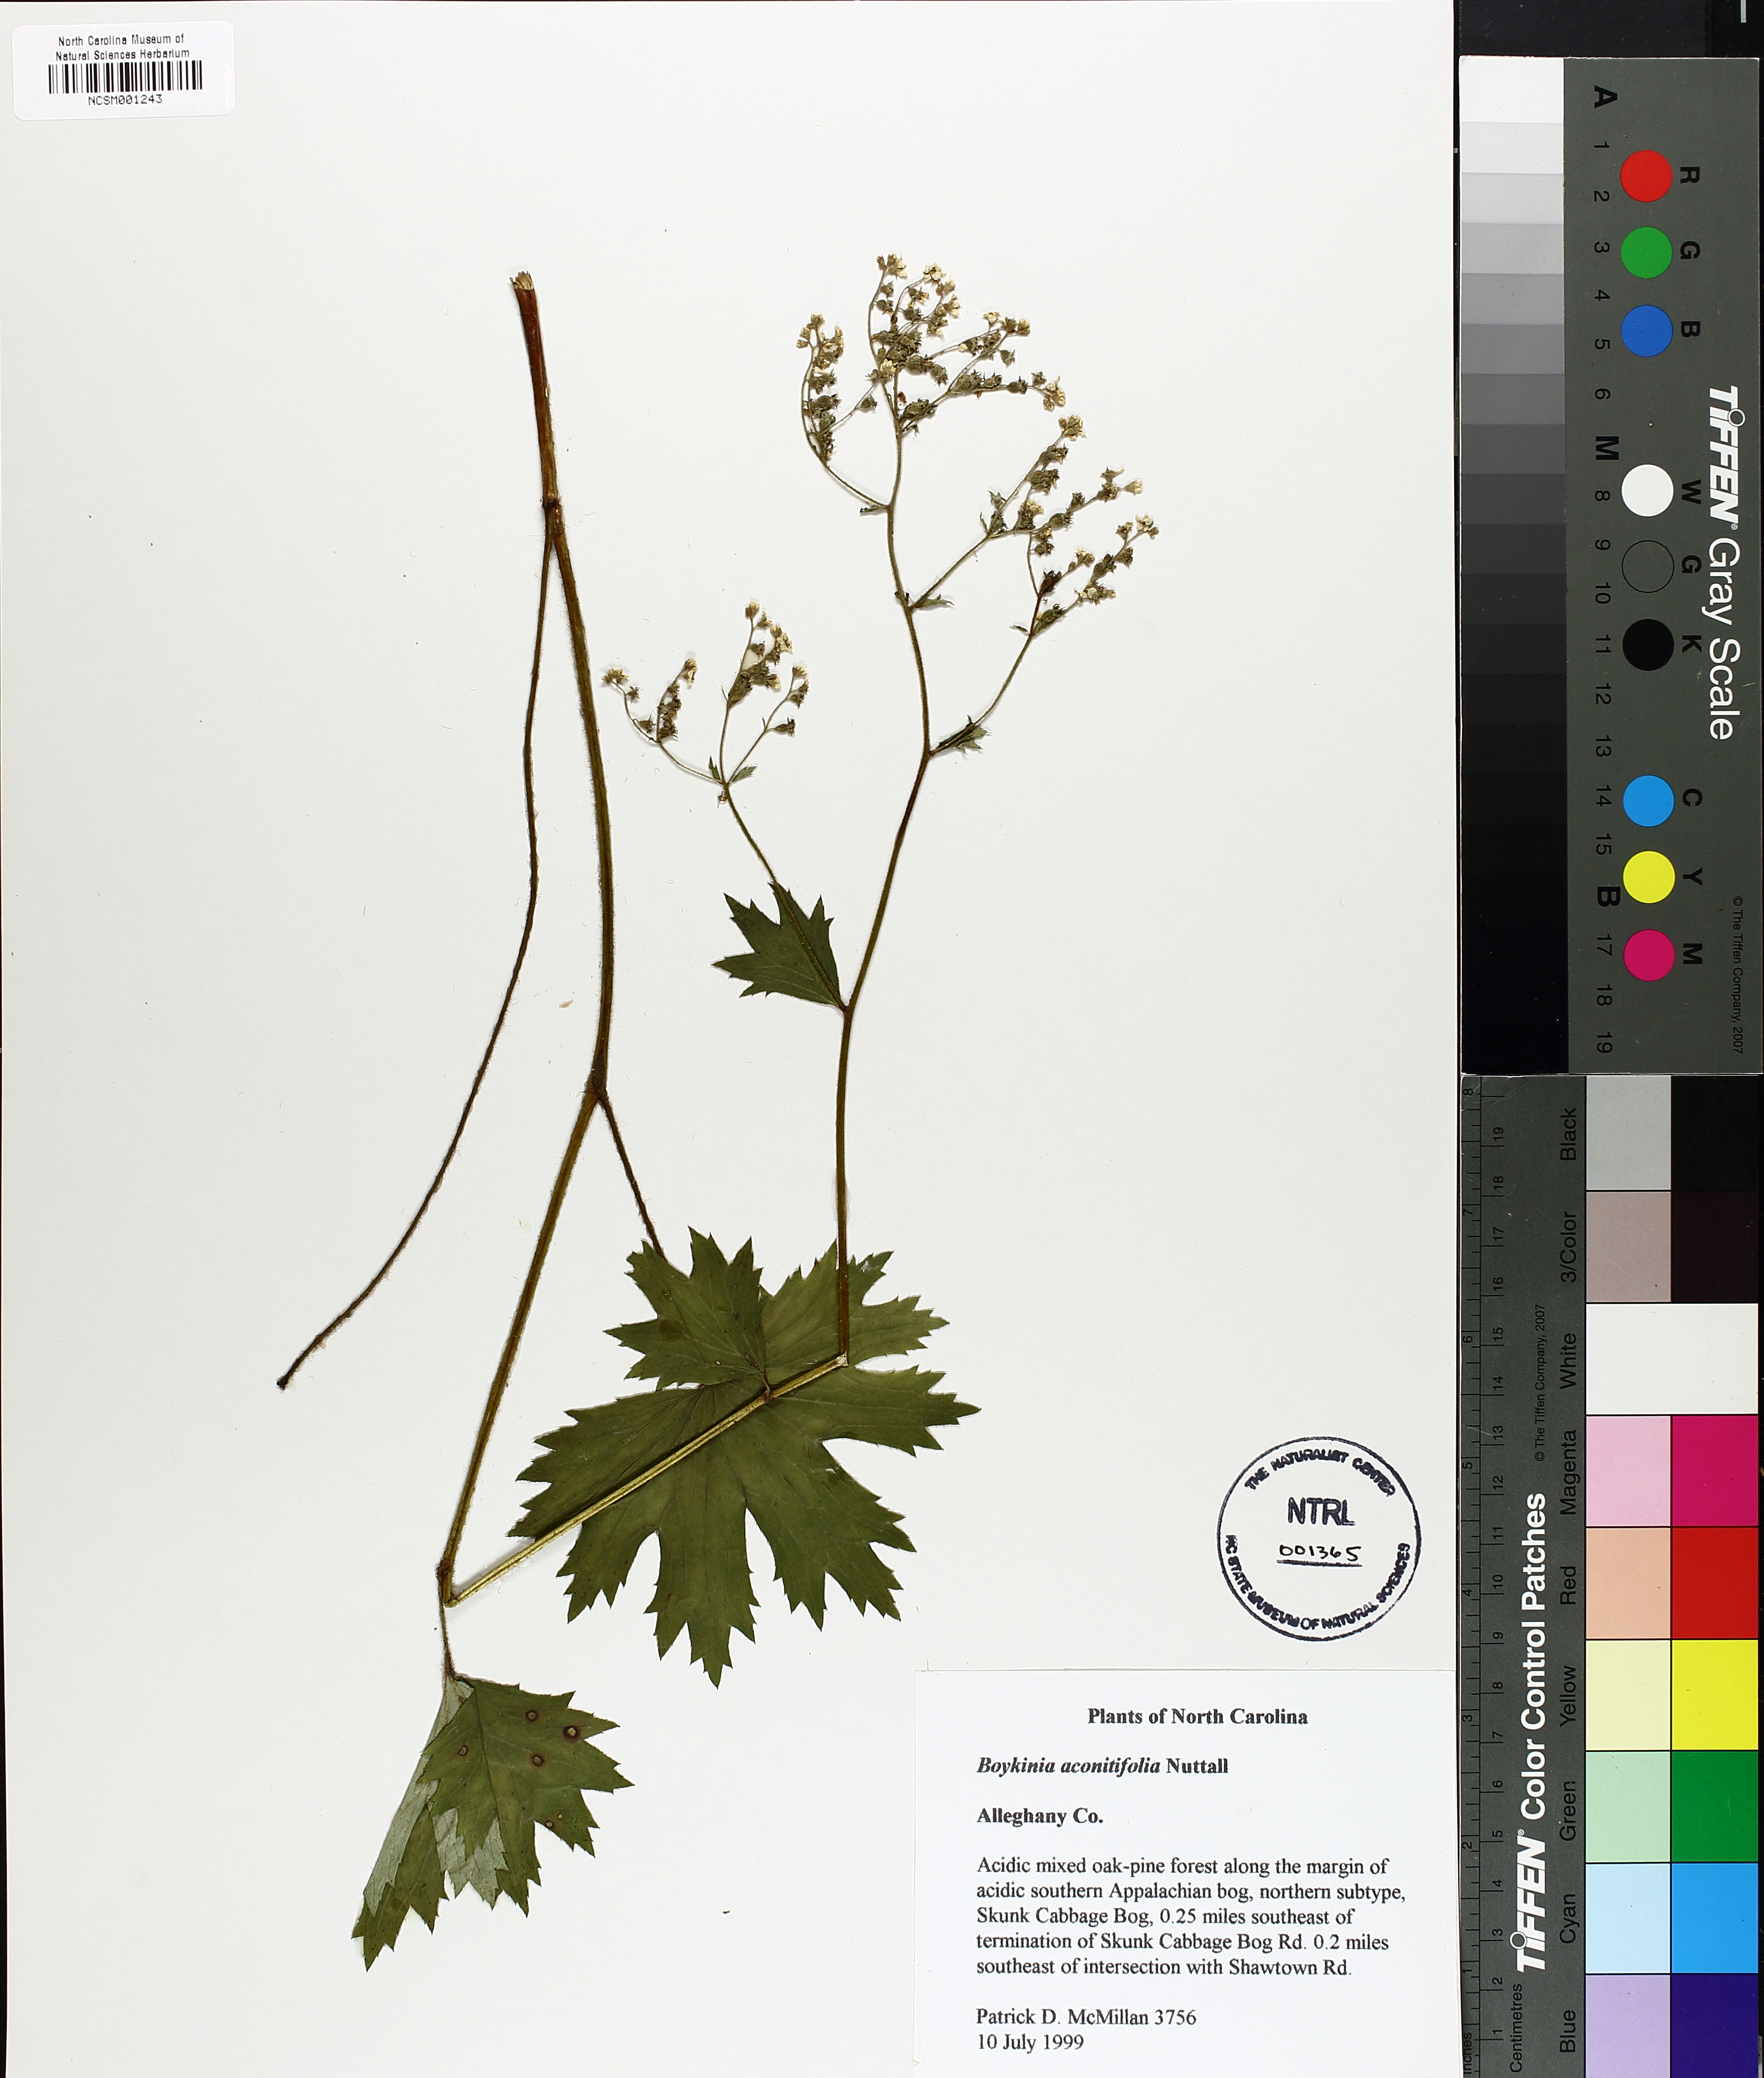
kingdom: Plantae
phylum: Tracheophyta
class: Magnoliopsida
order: Saxifragales
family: Saxifragaceae
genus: Boykinia
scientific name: Boykinia aconitifolia
